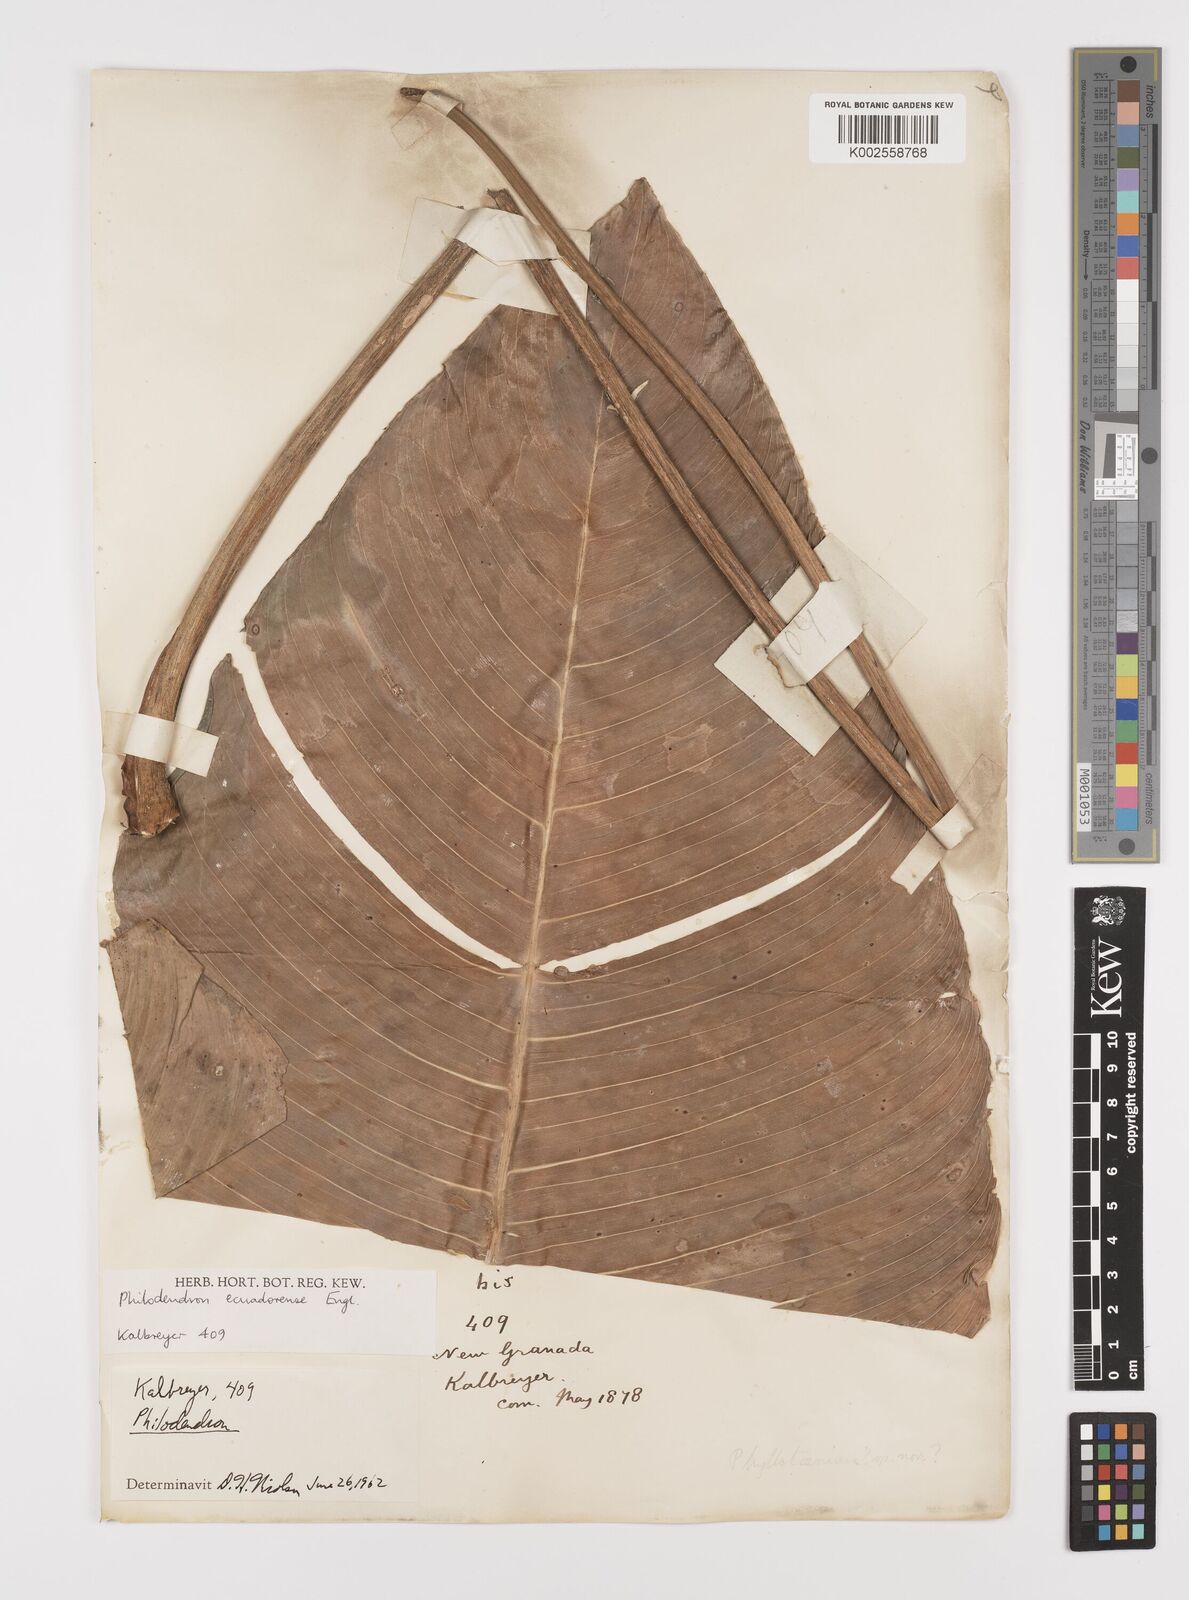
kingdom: Plantae
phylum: Tracheophyta
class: Liliopsida
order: Alismatales
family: Araceae
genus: Philodendron
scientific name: Philodendron tenue
